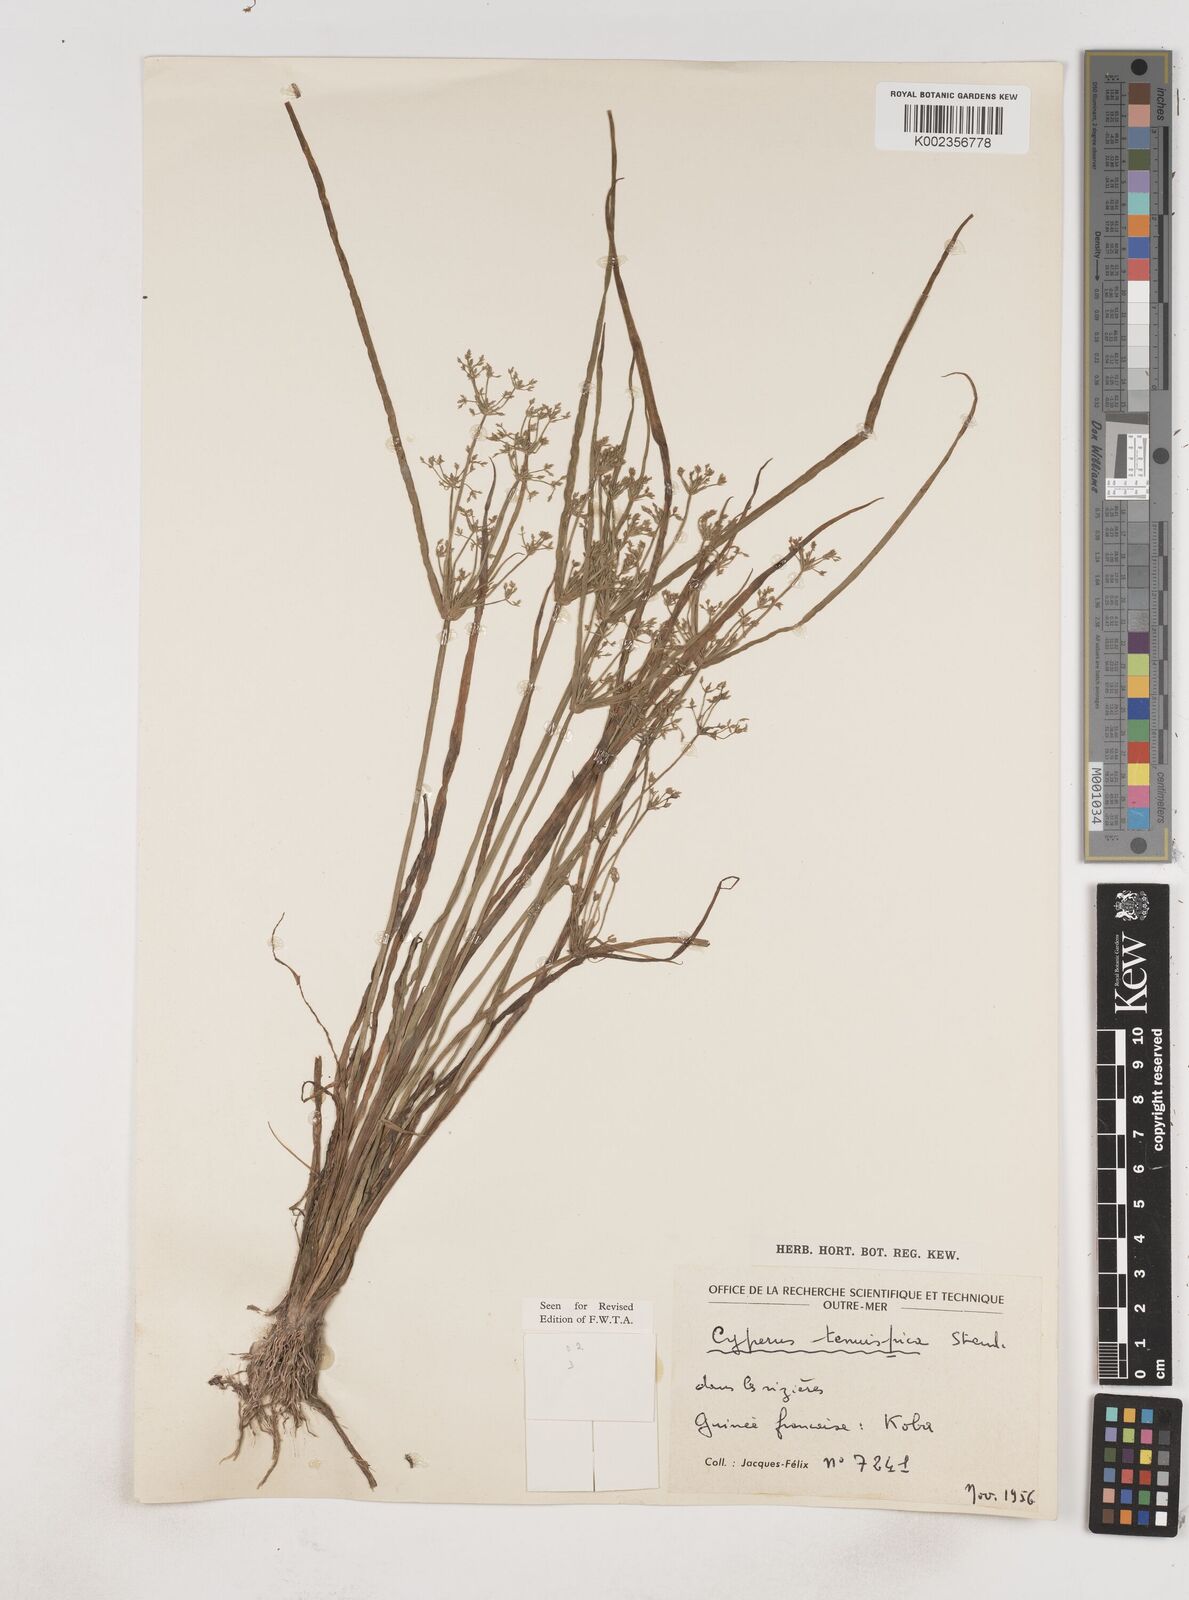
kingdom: Plantae
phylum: Tracheophyta
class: Liliopsida
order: Poales
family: Cyperaceae
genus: Cyperus
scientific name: Cyperus tenuispica
